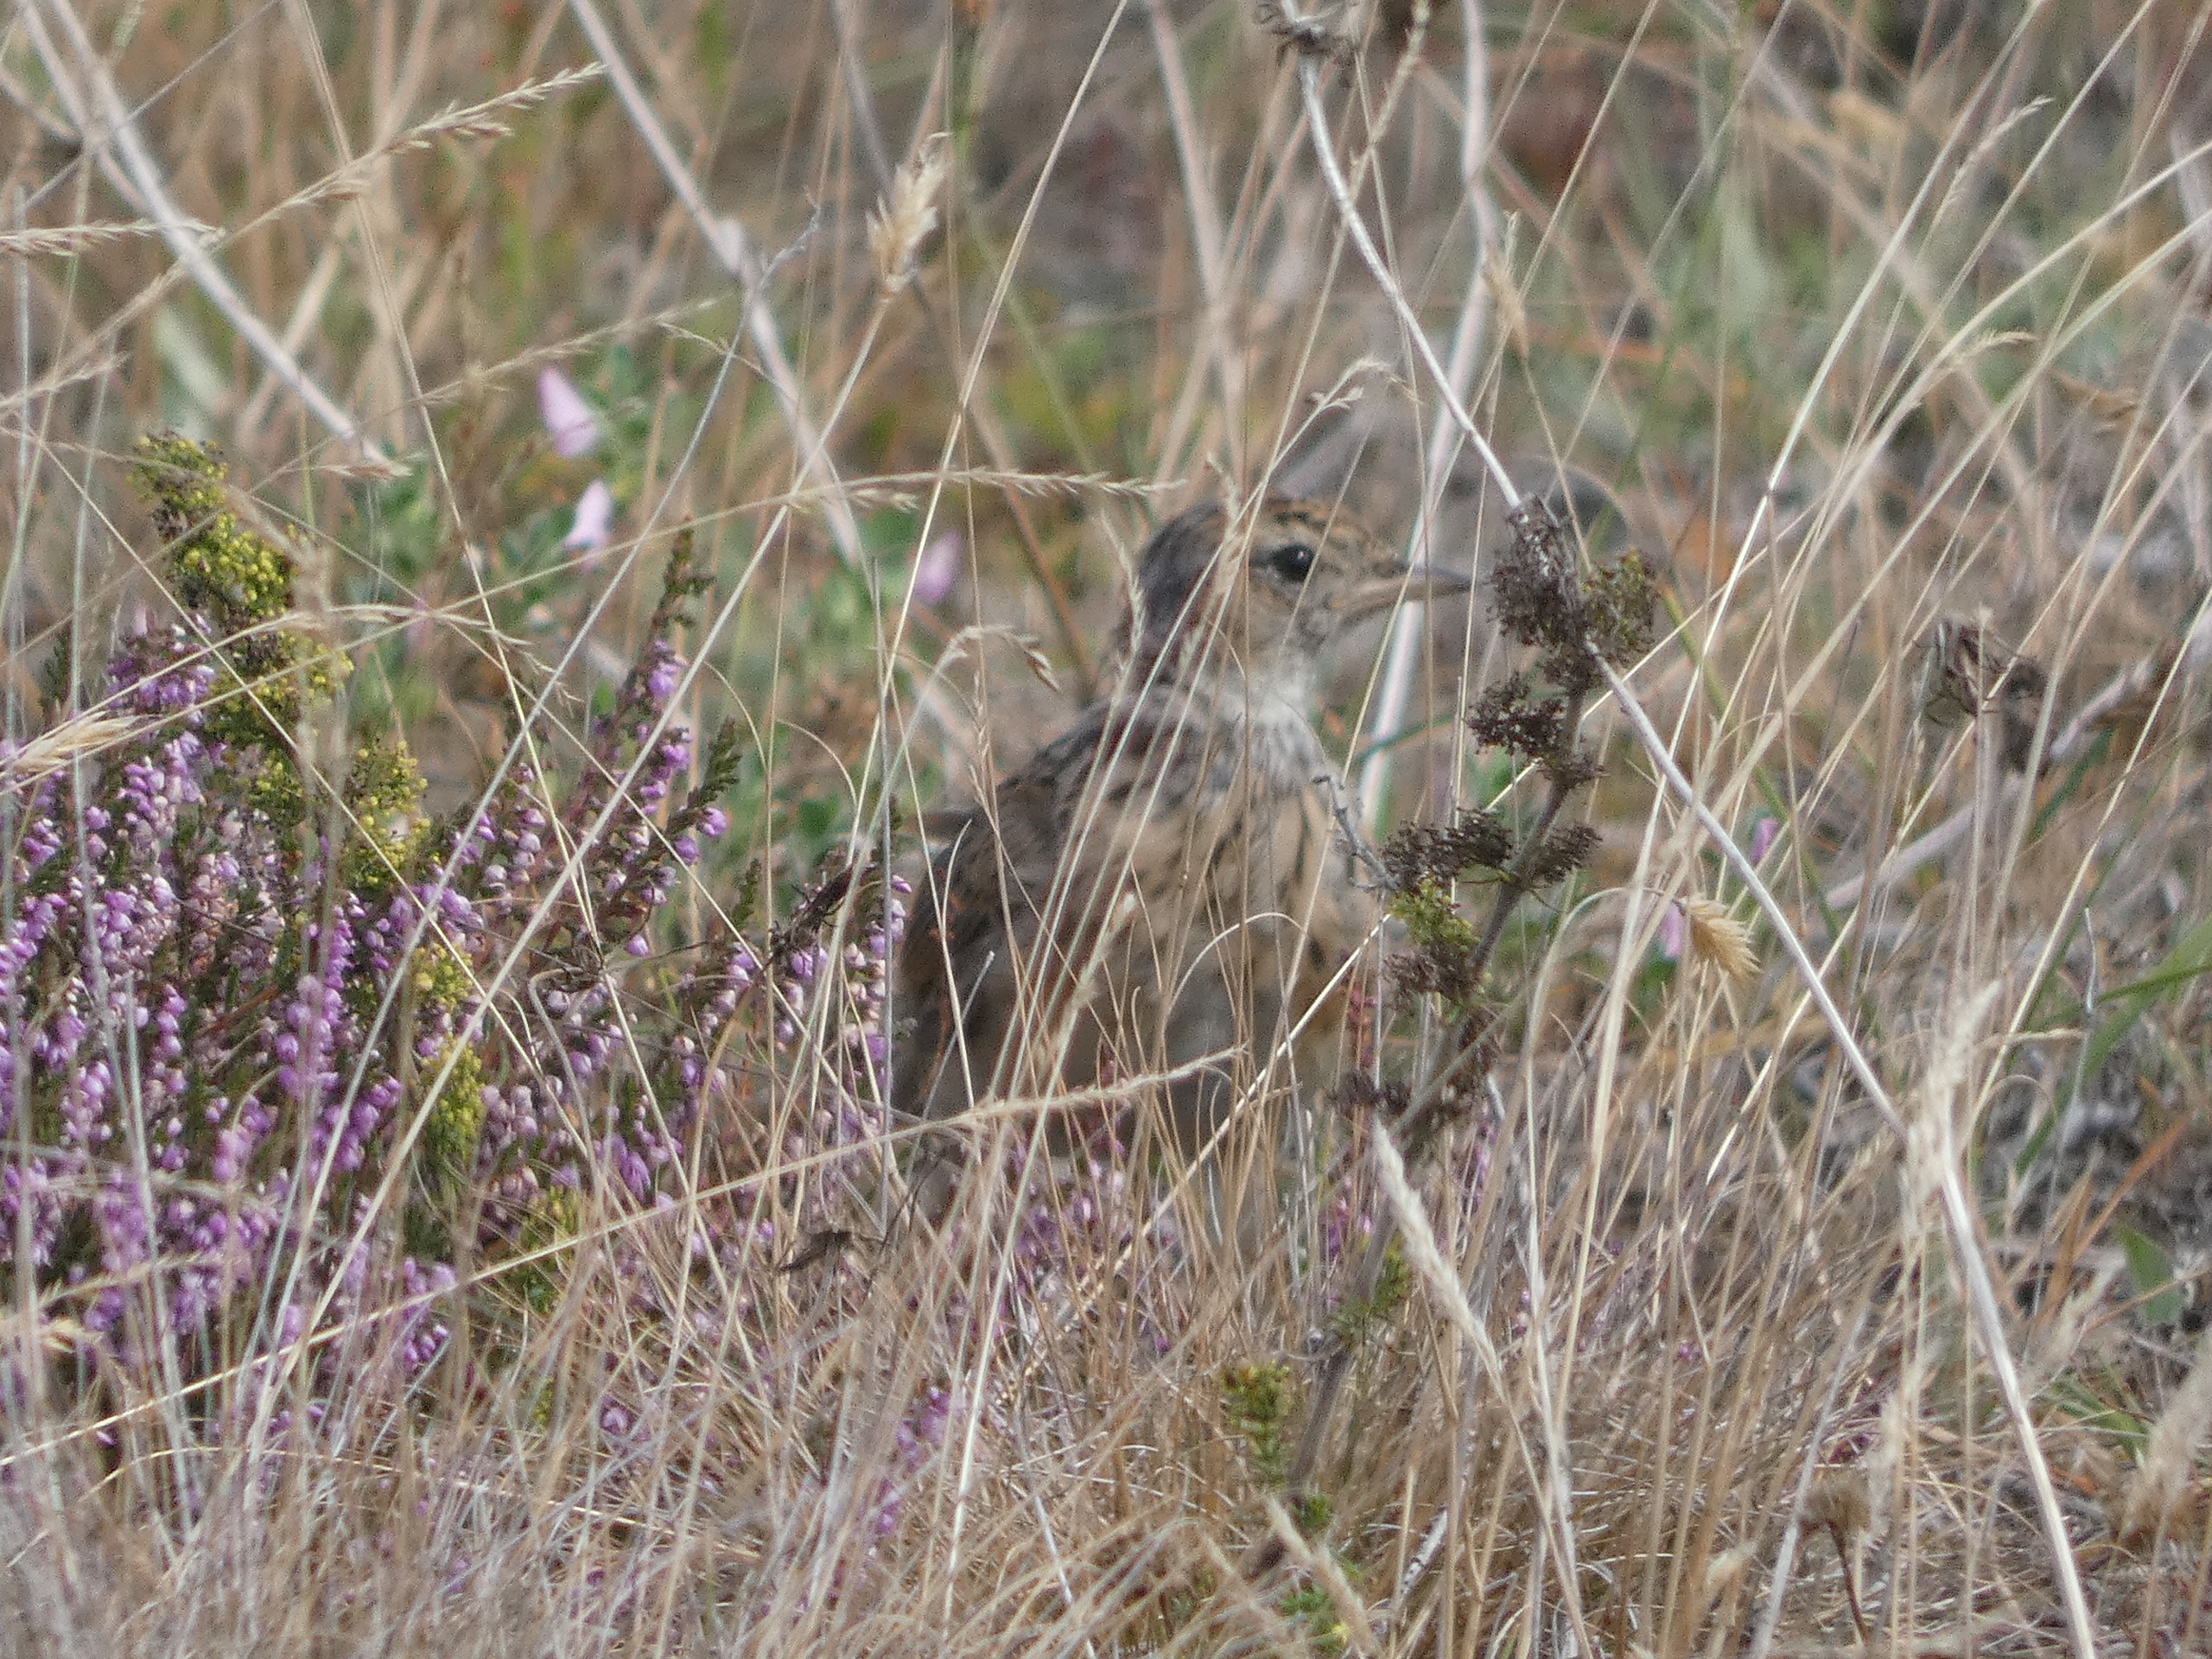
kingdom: Animalia
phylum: Chordata
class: Aves
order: Passeriformes
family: Alaudidae
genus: Alauda
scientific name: Alauda arvensis
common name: Sanglærke
